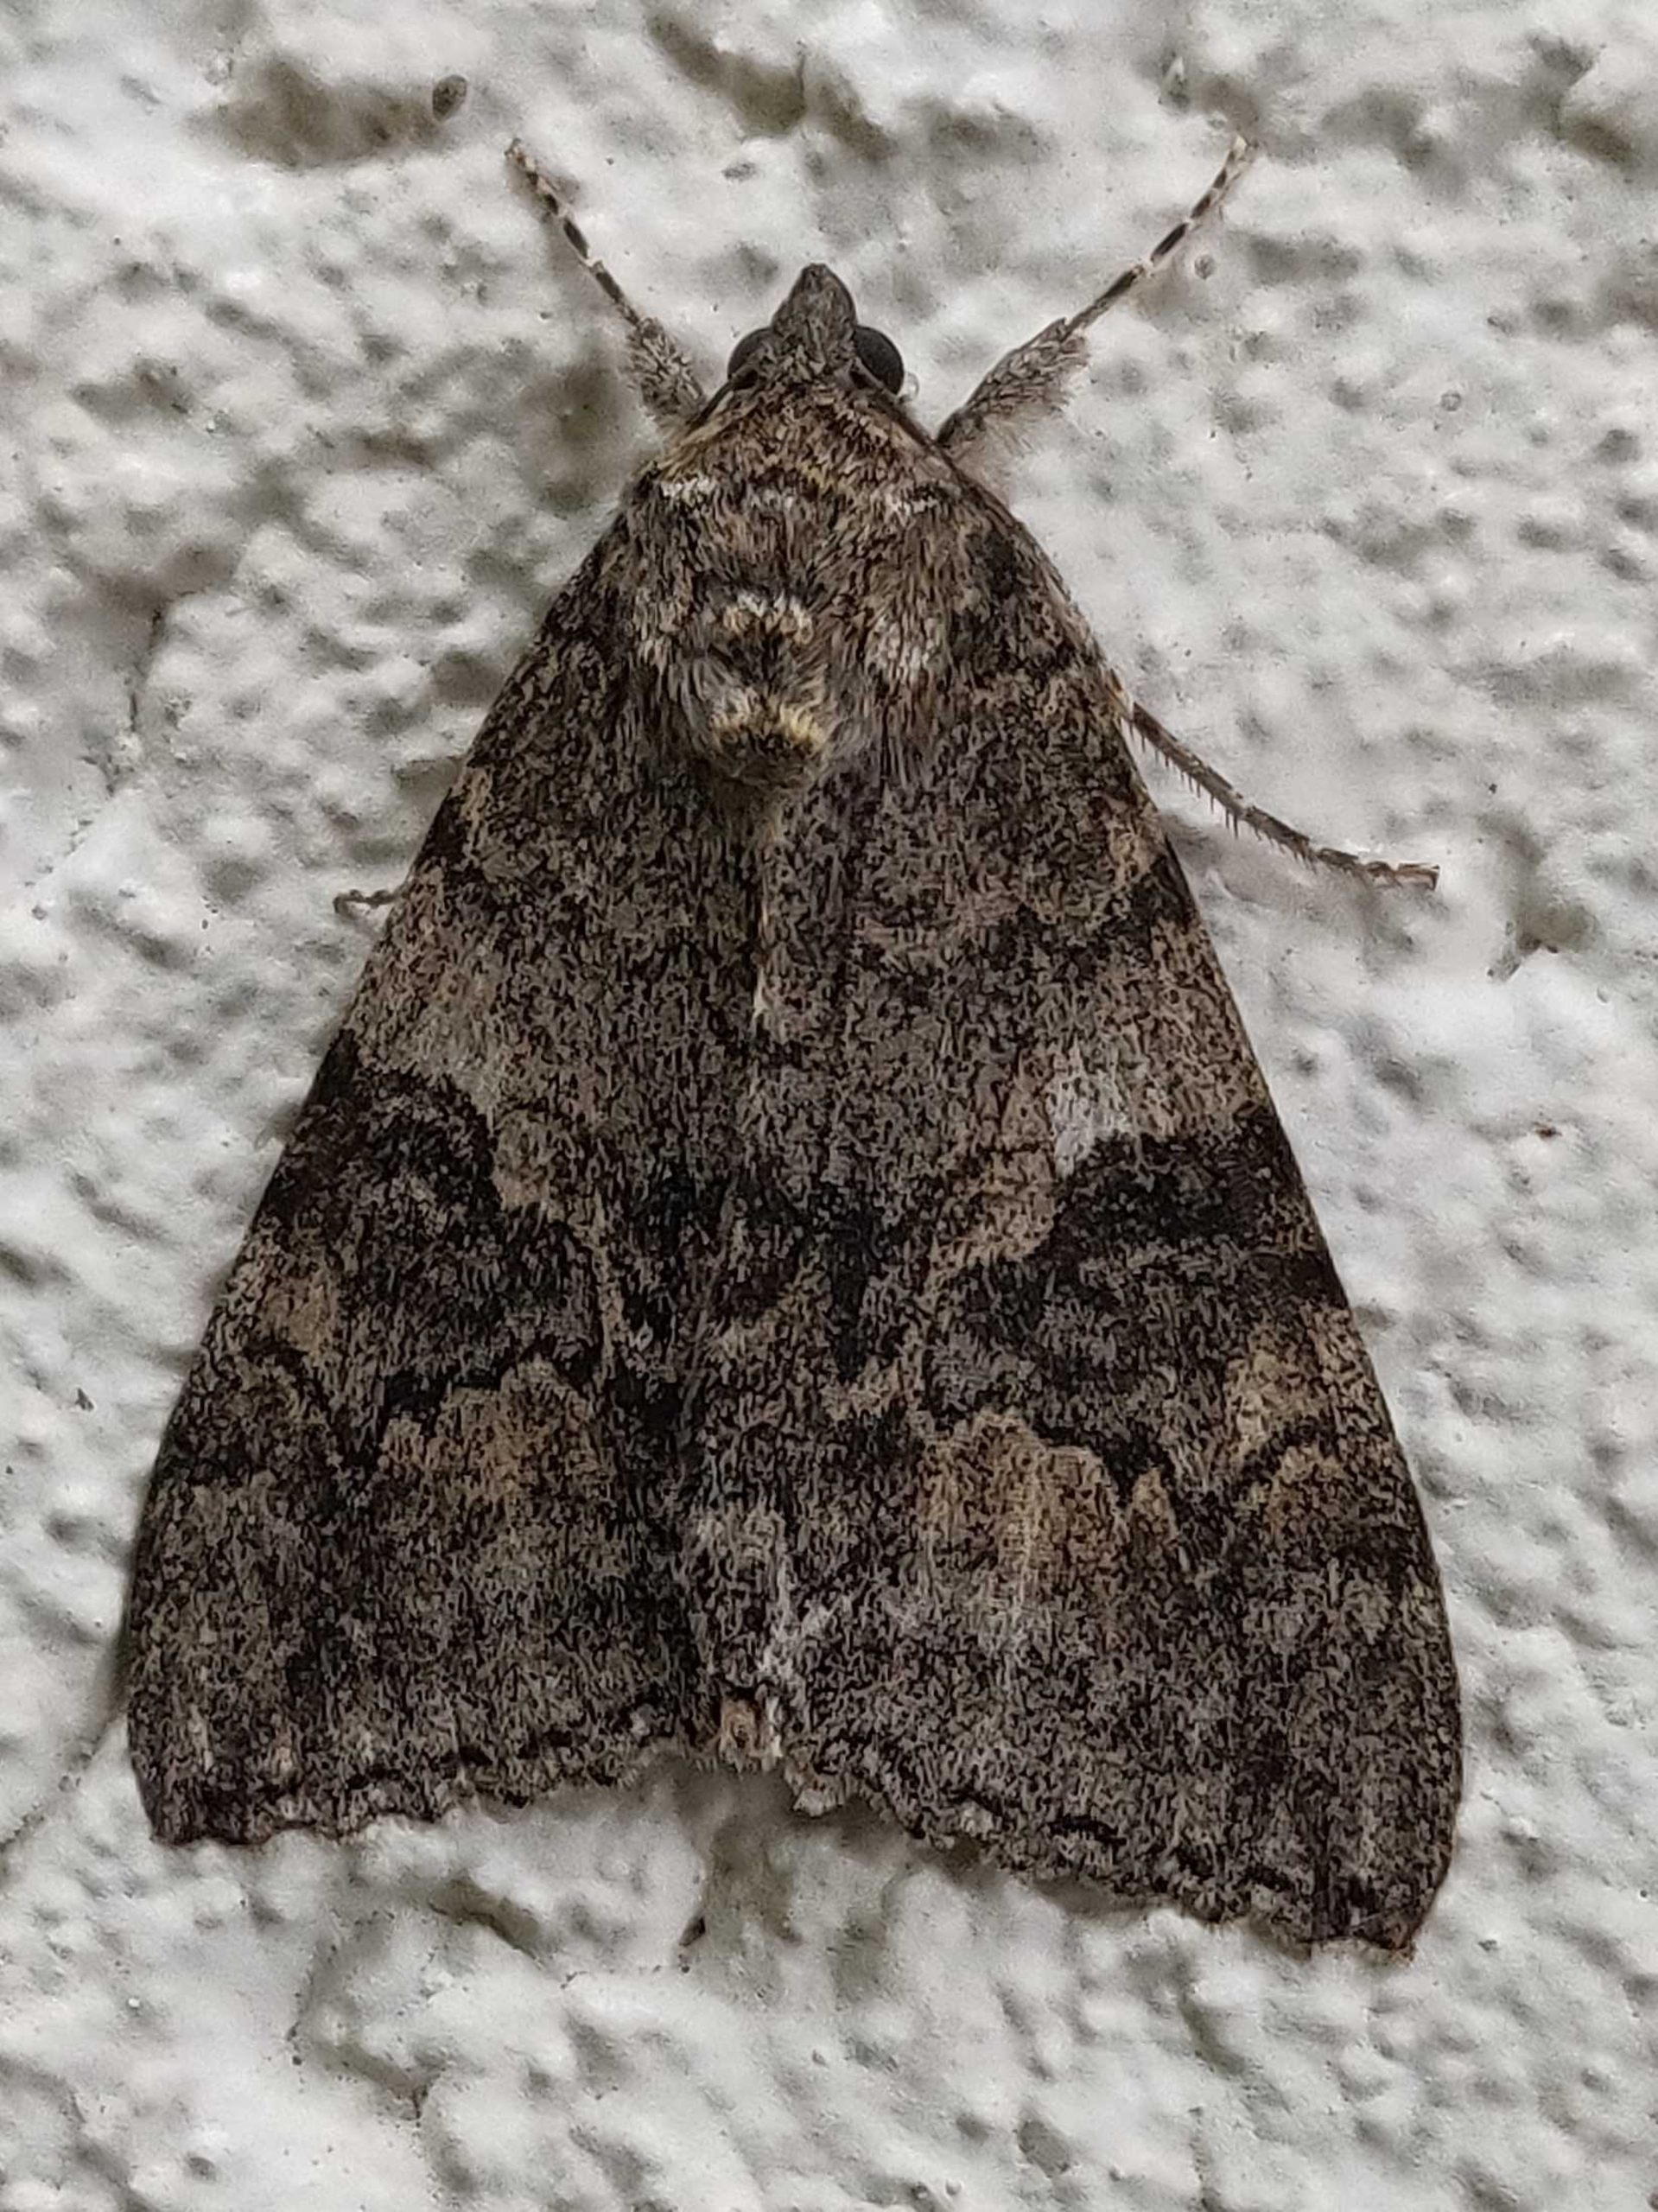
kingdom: Animalia
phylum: Arthropoda
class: Insecta
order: Lepidoptera
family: Erebidae
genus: Catocala
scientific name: Catocala nupta
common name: Rødt ordensbånd
